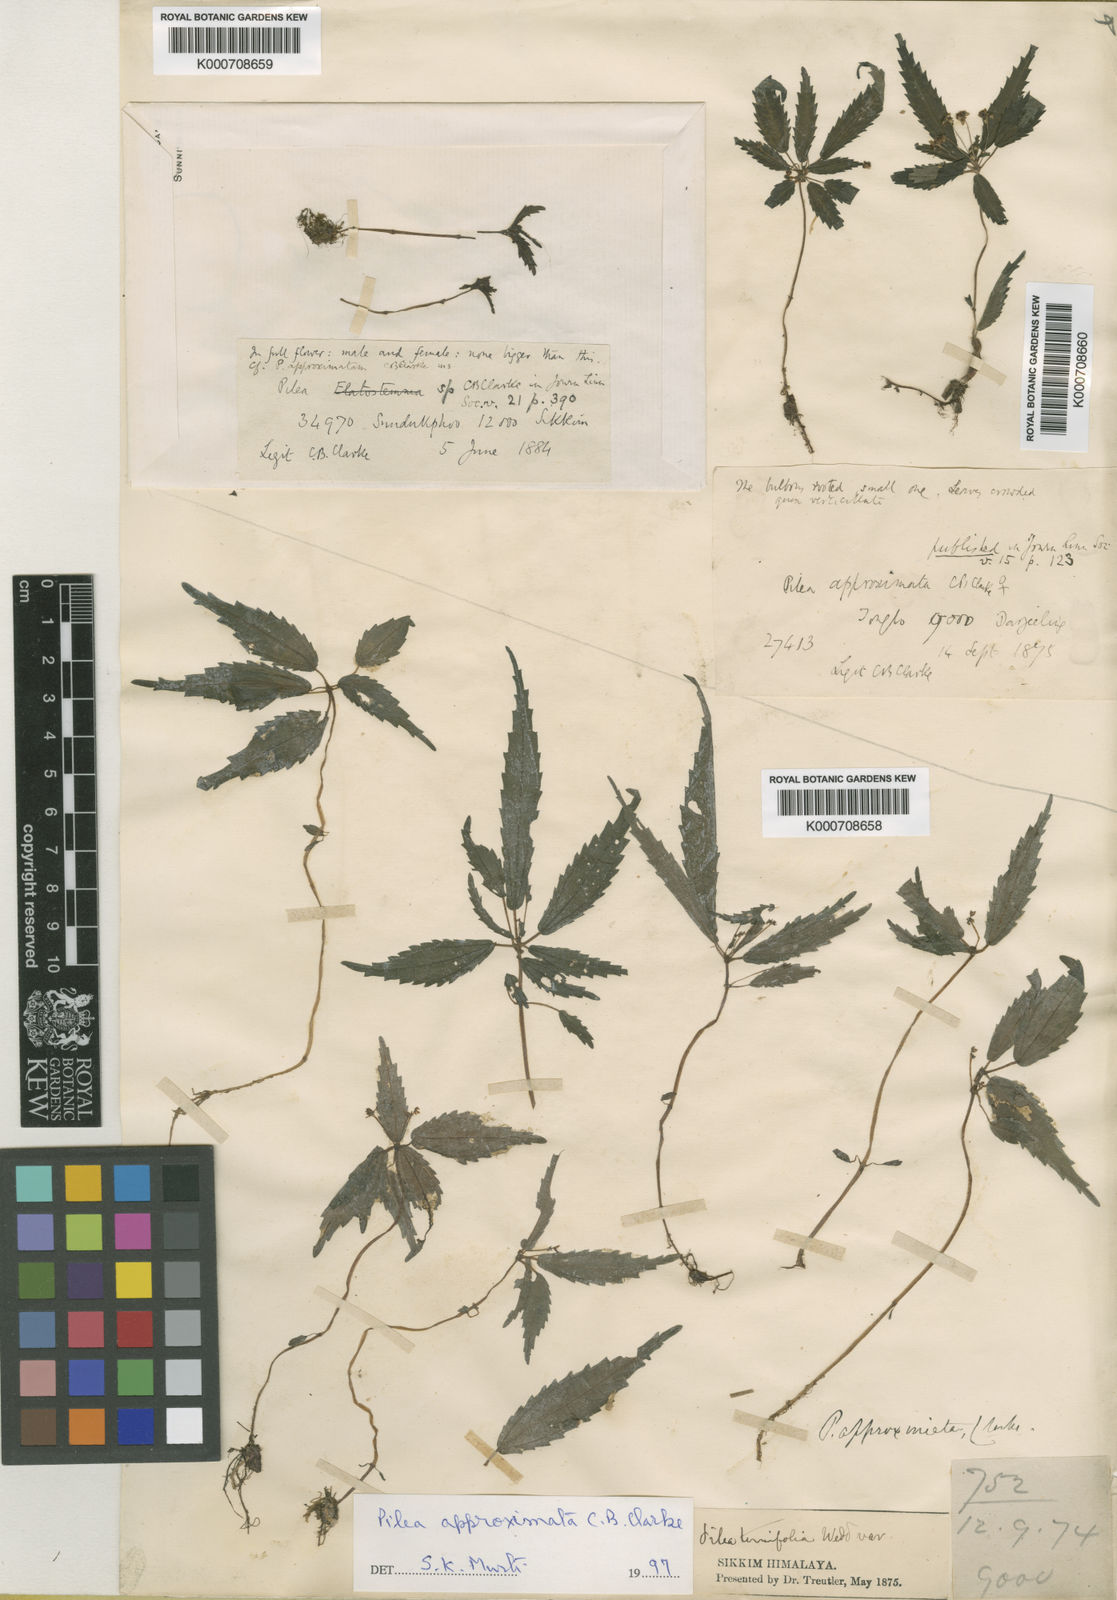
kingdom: Plantae
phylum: Tracheophyta
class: Magnoliopsida
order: Rosales
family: Urticaceae
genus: Pilea
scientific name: Pilea approximata
